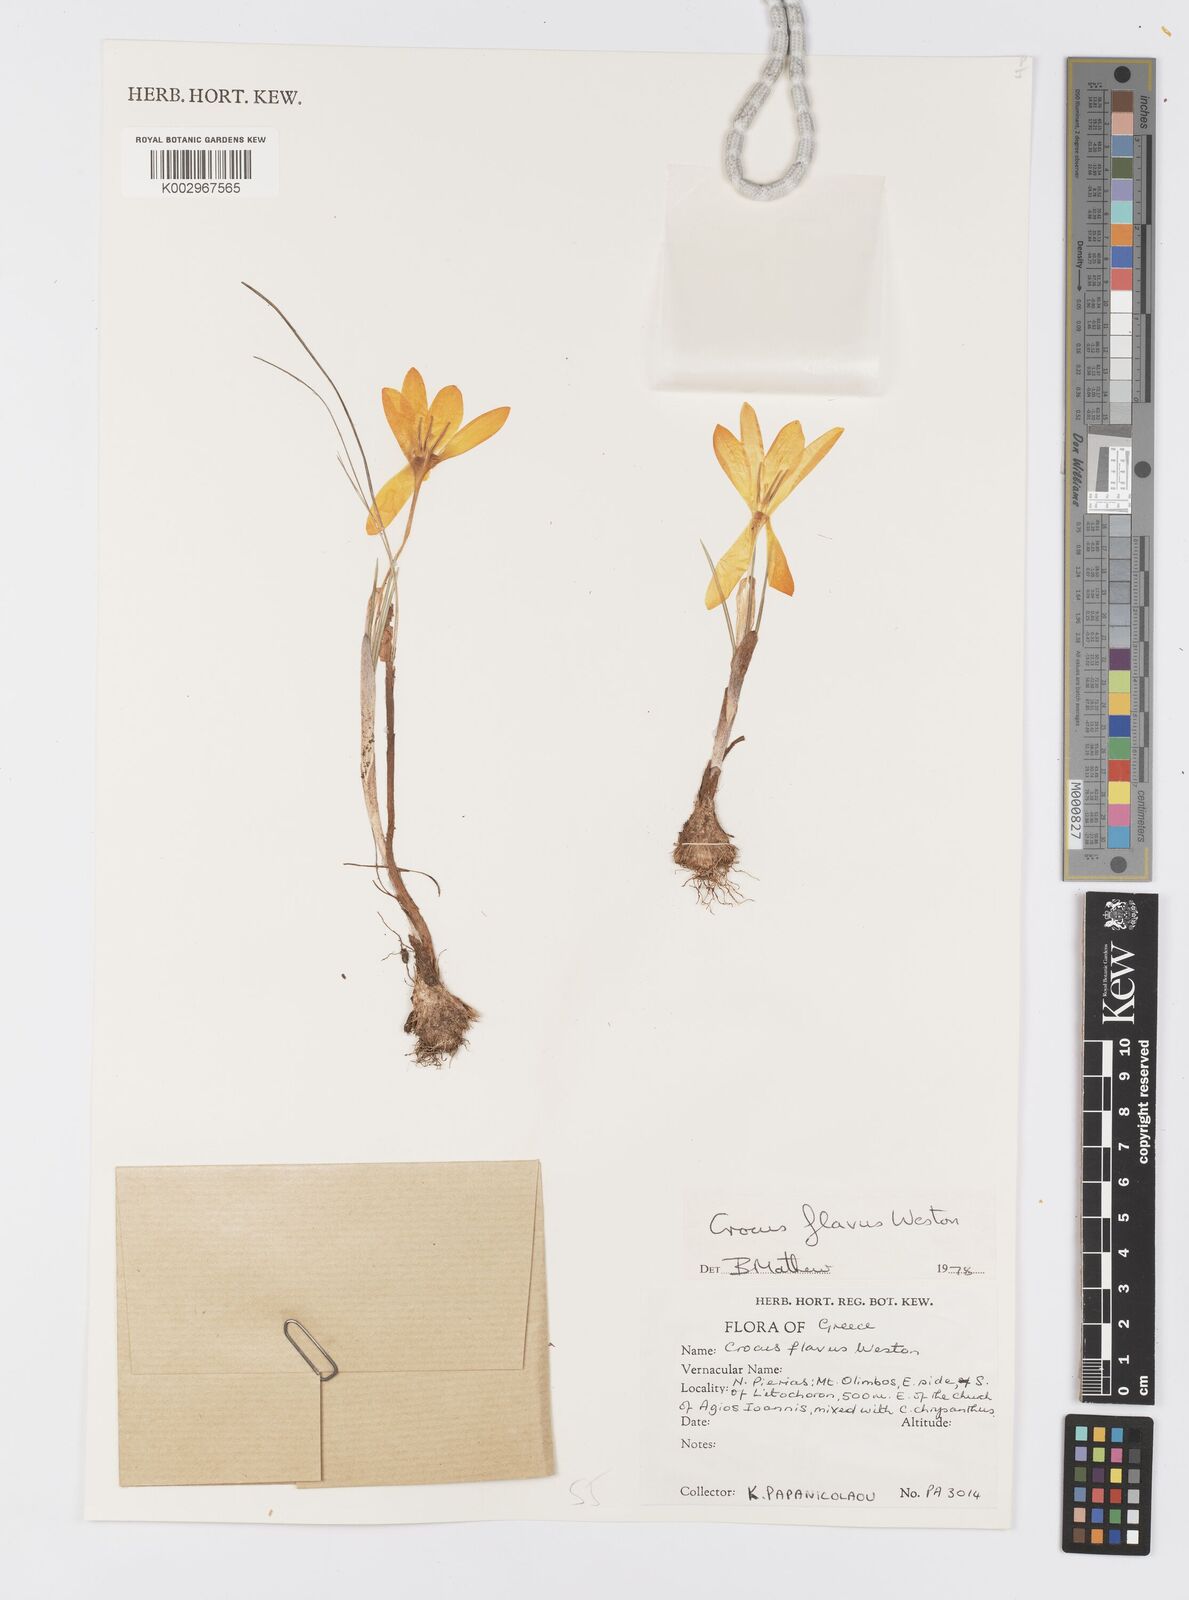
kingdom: Plantae
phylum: Tracheophyta
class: Liliopsida
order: Asparagales
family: Iridaceae
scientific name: Iridaceae
